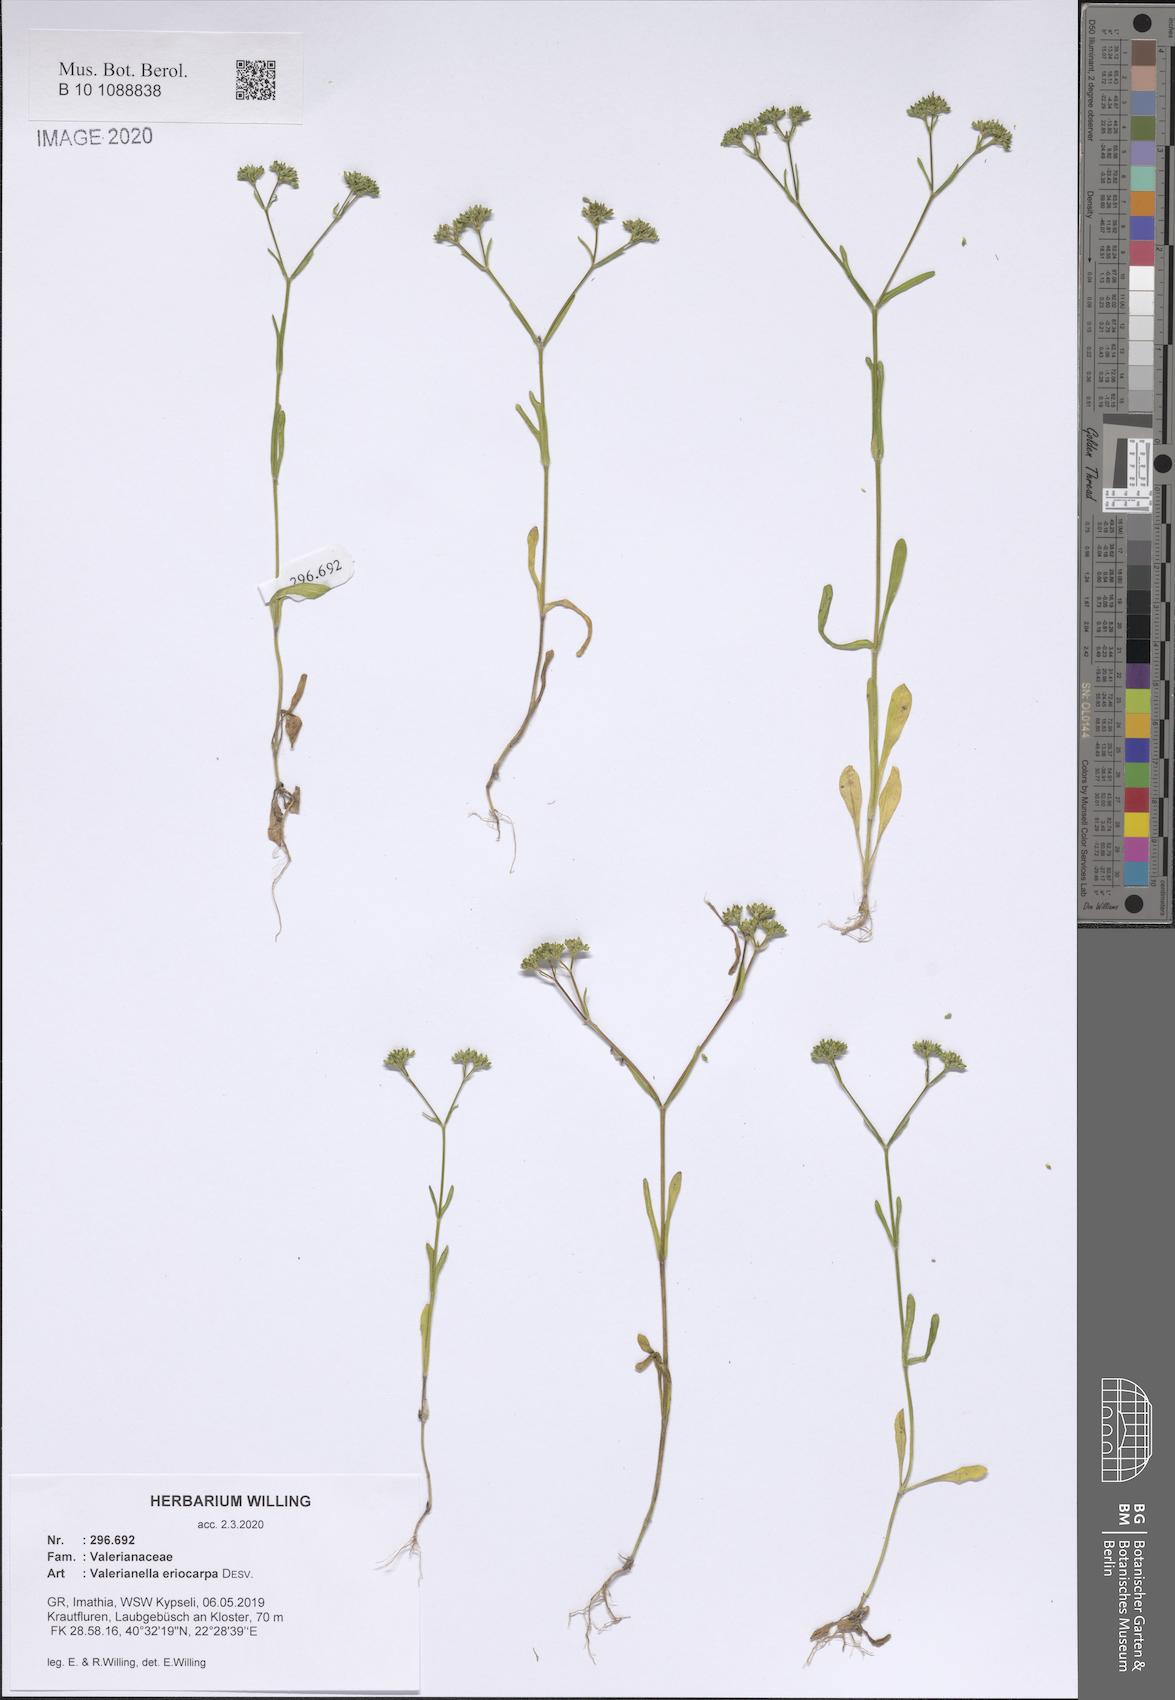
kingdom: Plantae
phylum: Tracheophyta
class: Magnoliopsida
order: Dipsacales
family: Caprifoliaceae
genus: Valerianella
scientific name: Valerianella eriocarpa
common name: Hairy-fruited cornsalad
